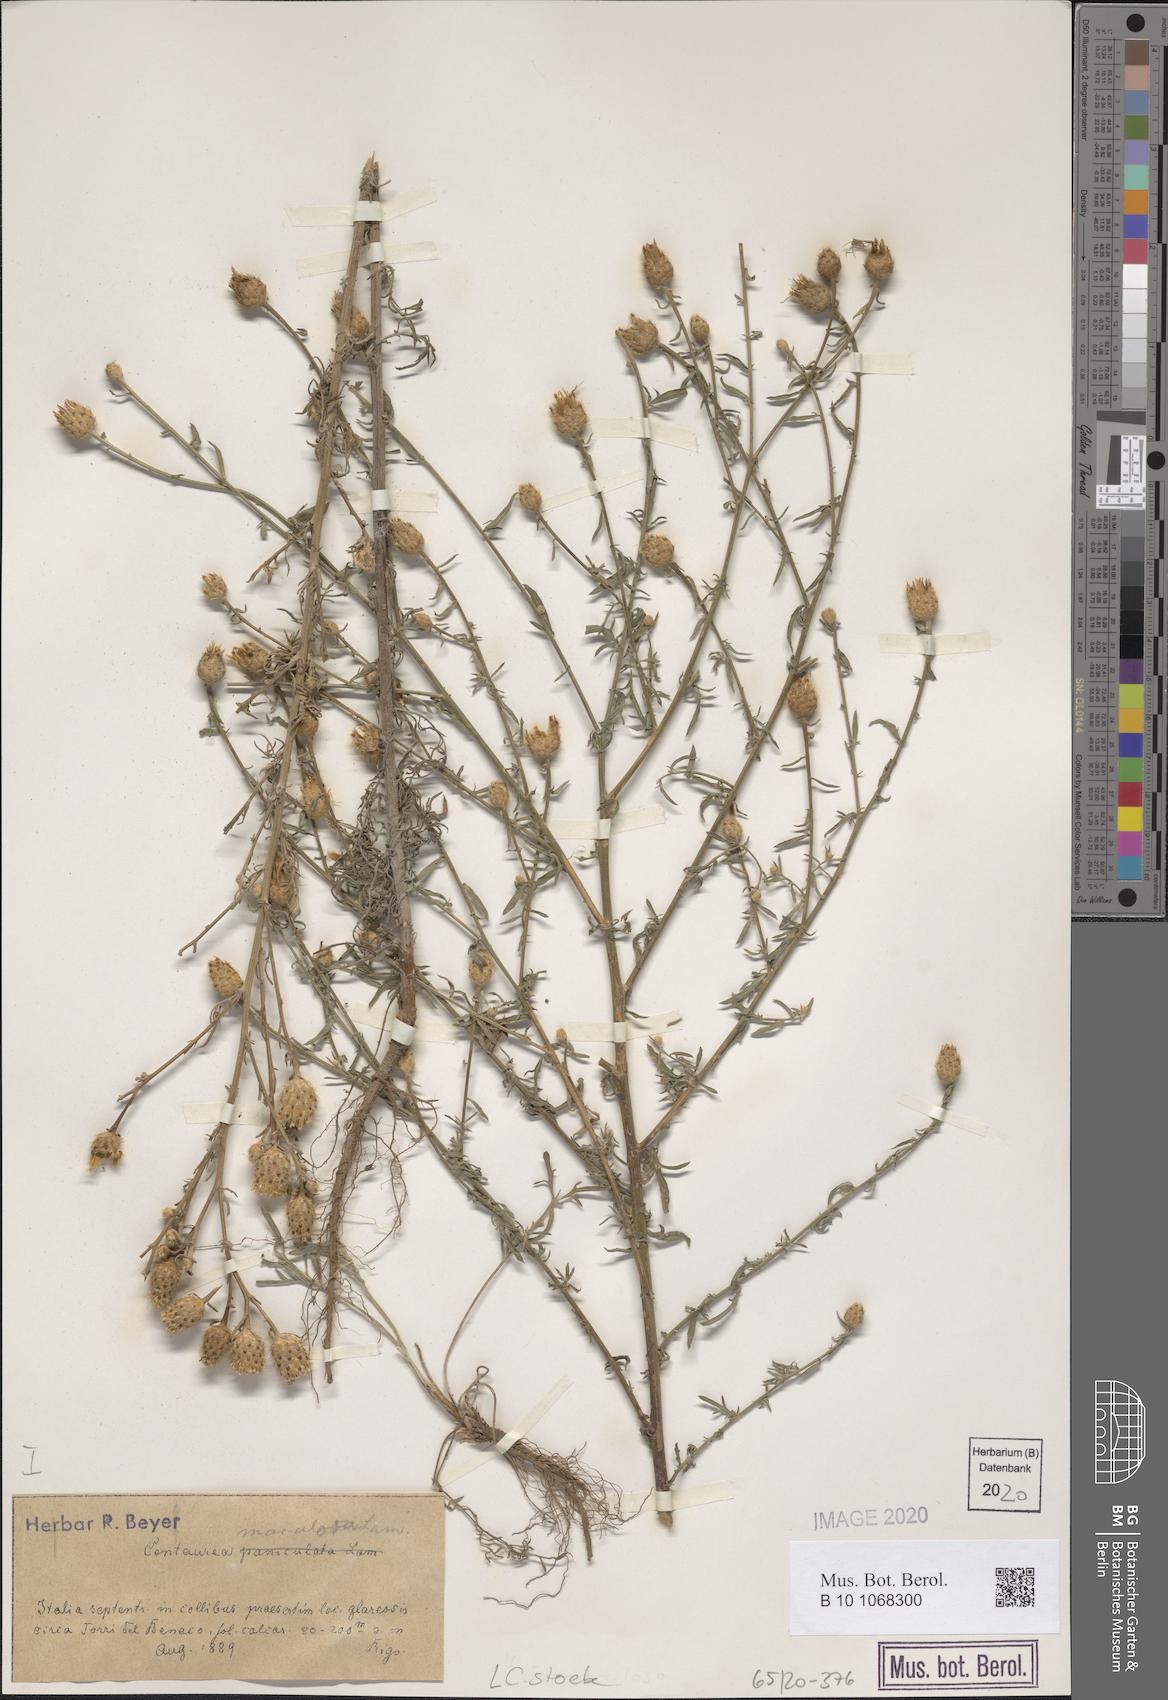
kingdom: Plantae
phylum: Tracheophyta
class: Magnoliopsida
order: Asterales
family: Asteraceae
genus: Centaurea
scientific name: Centaurea stoebe
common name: Spotted knapweed
